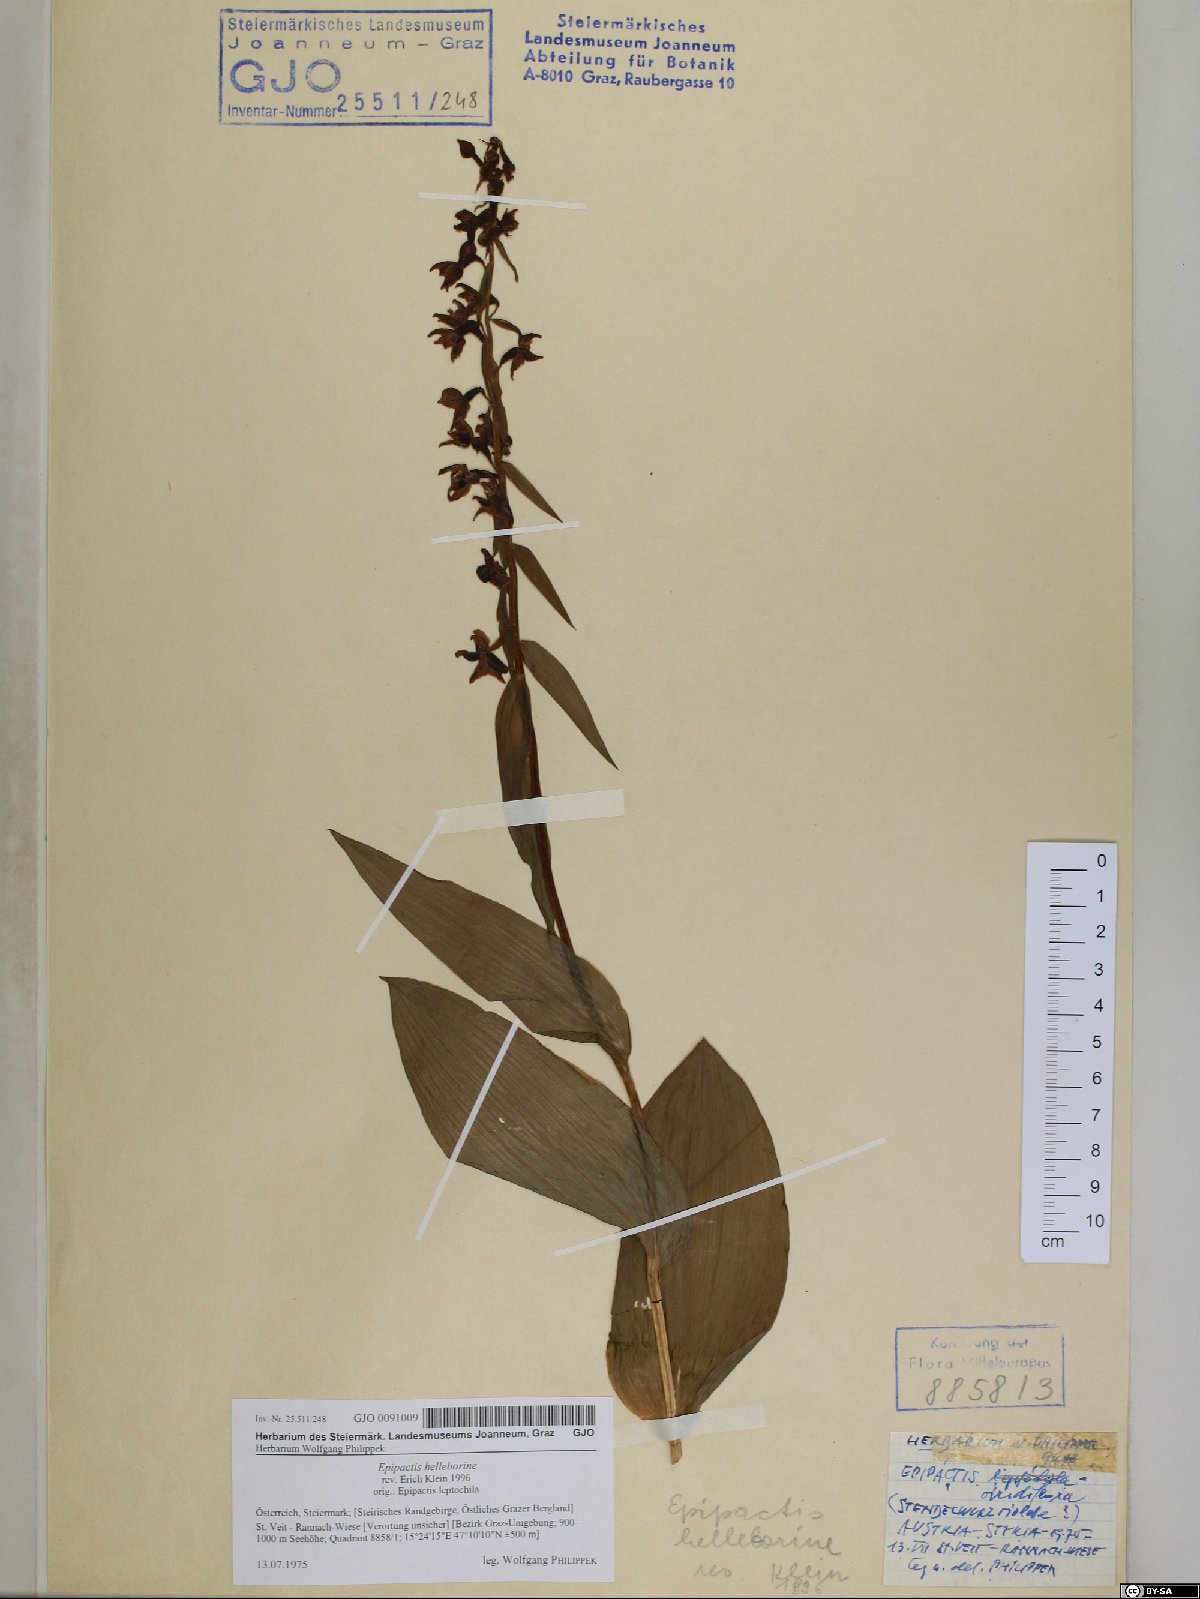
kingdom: Plantae
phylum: Tracheophyta
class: Liliopsida
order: Asparagales
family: Orchidaceae
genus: Epipactis
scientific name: Epipactis helleborine
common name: Broad-leaved helleborine
